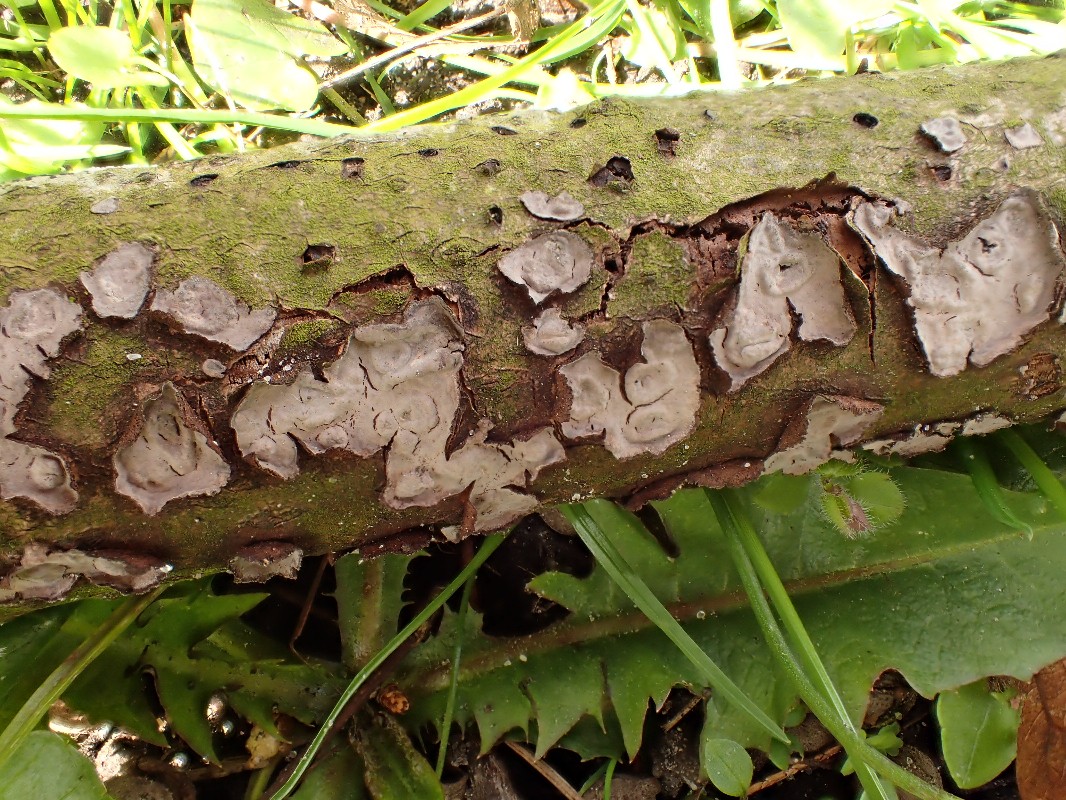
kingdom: Fungi
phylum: Basidiomycota
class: Agaricomycetes
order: Russulales
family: Peniophoraceae
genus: Peniophora
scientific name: Peniophora
